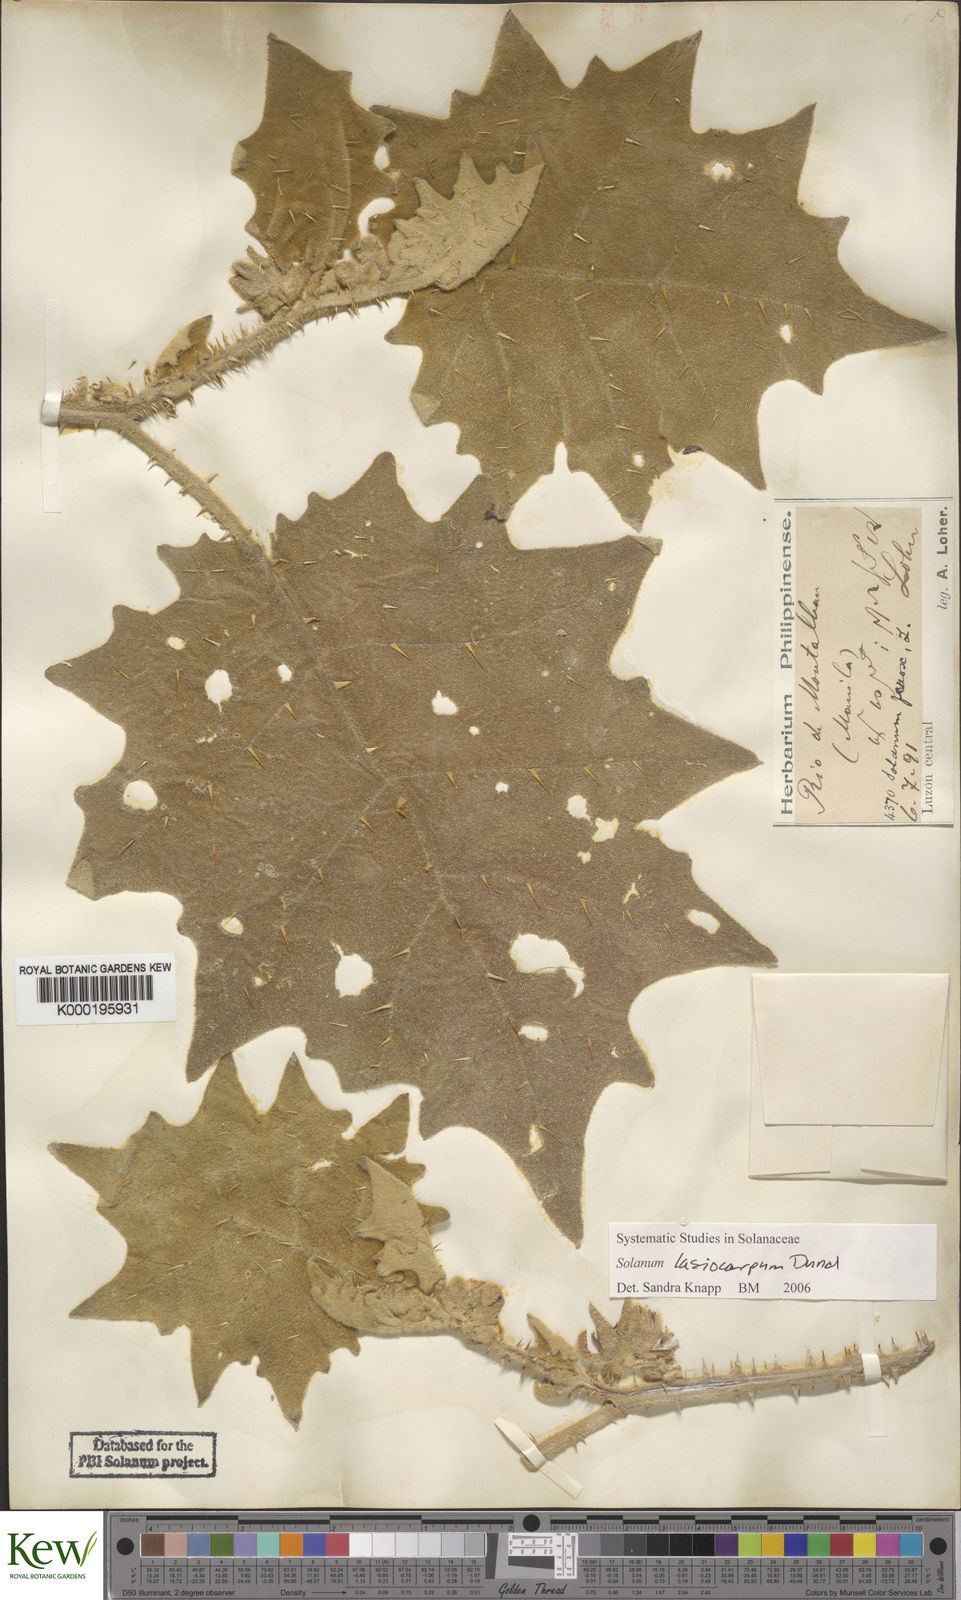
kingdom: Plantae
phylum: Tracheophyta
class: Magnoliopsida
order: Solanales
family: Solanaceae
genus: Solanum
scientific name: Solanum lasiocarpum
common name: Indian nightshade
